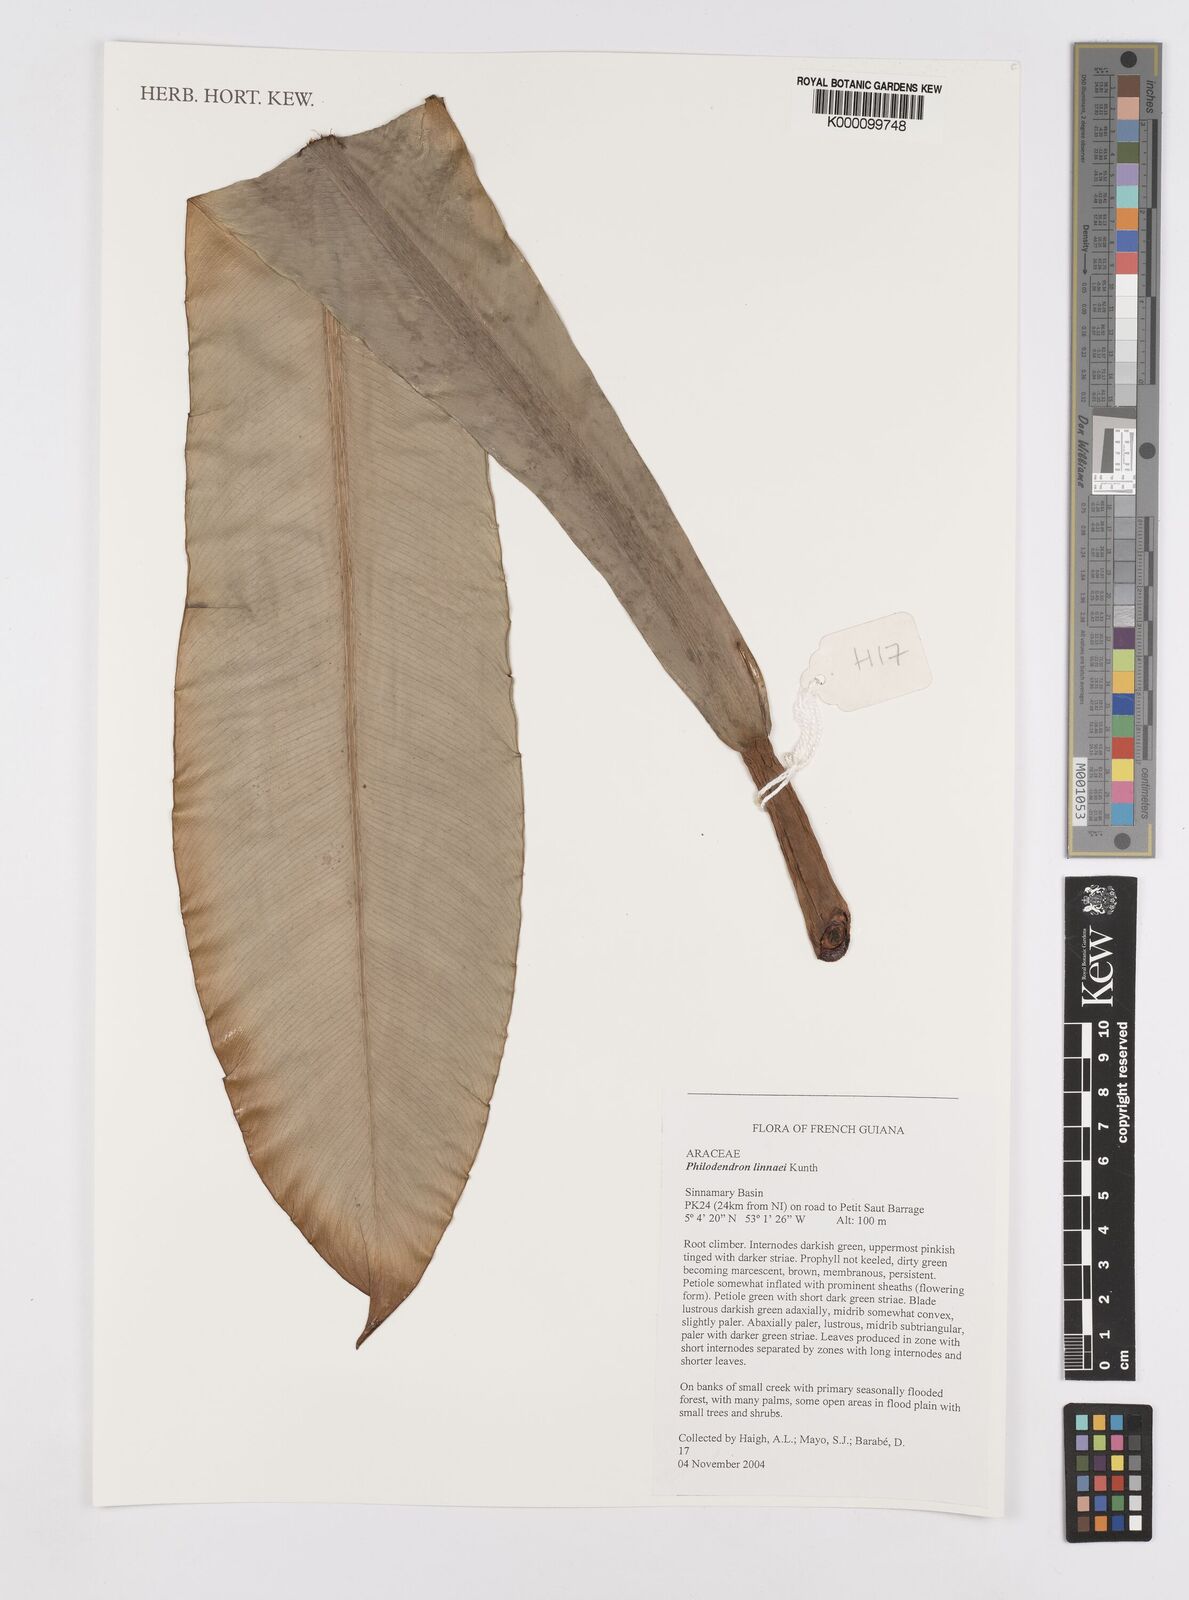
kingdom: Plantae
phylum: Tracheophyta
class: Liliopsida
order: Alismatales
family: Araceae
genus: Philodendron
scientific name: Philodendron linnaei
